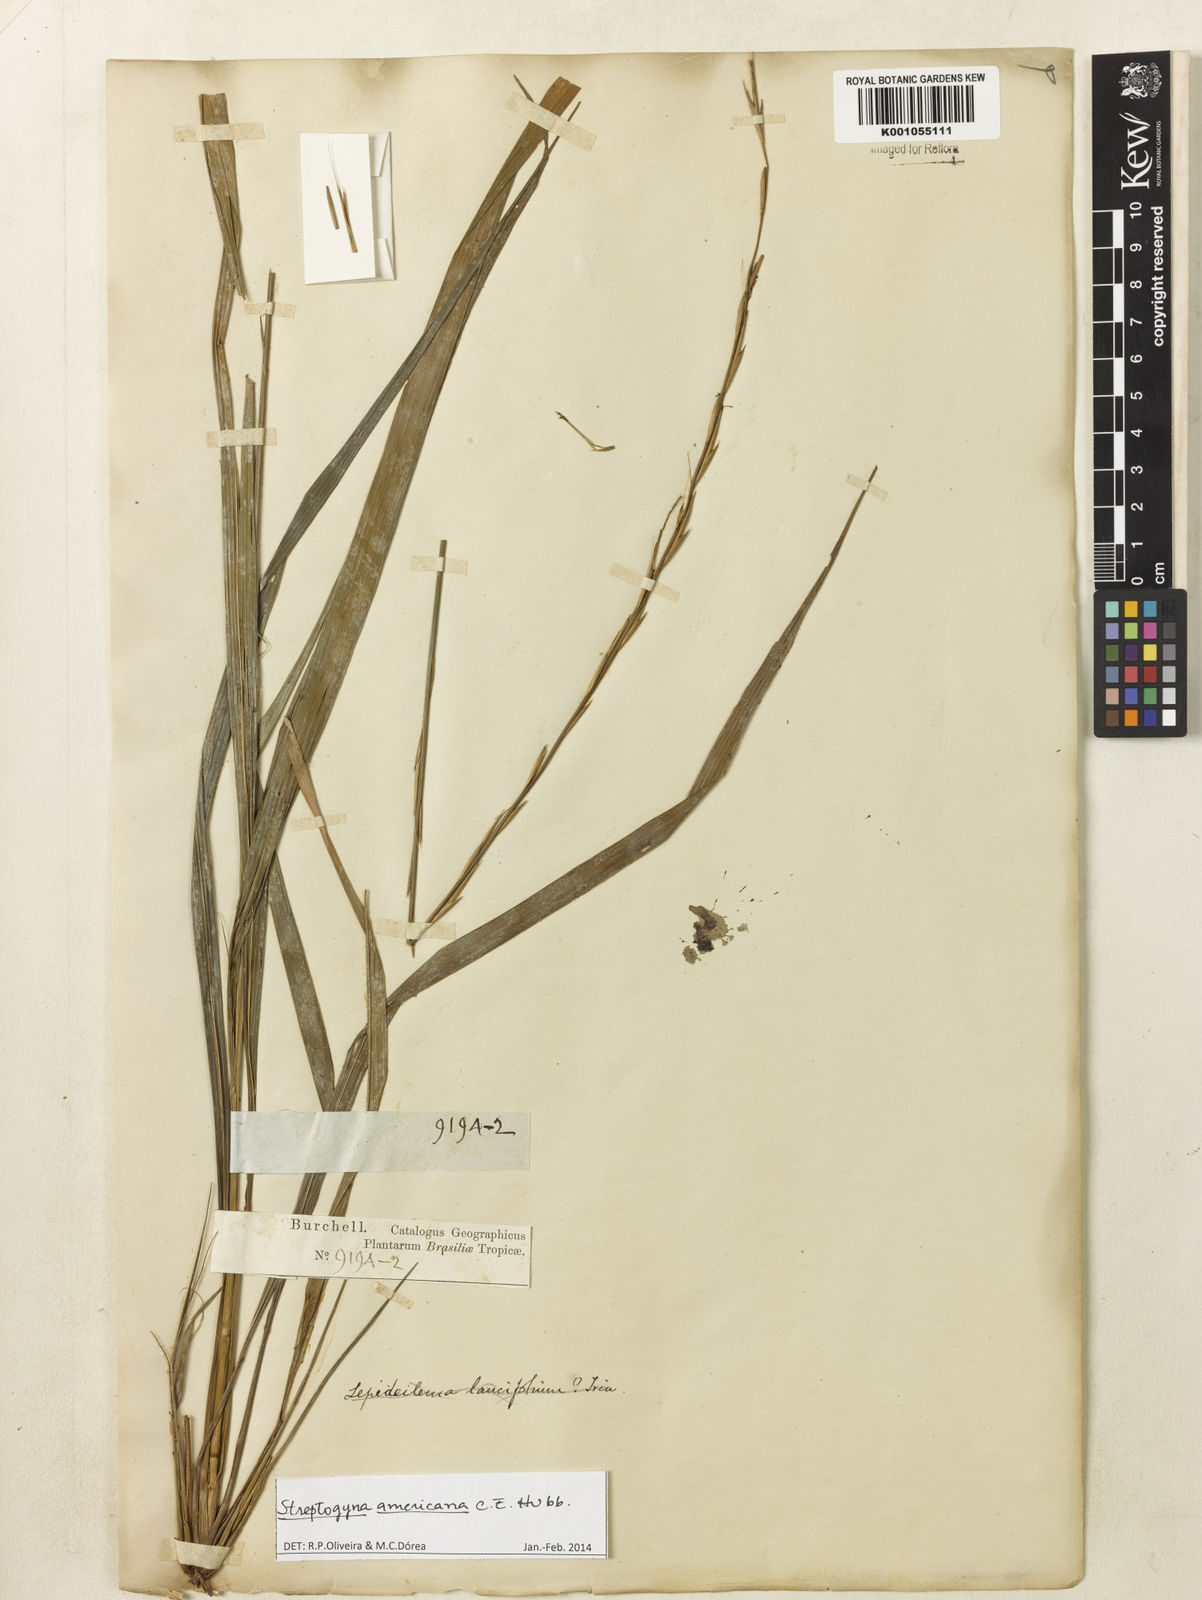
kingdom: Plantae
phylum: Tracheophyta
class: Liliopsida
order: Poales
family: Poaceae
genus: Streptogyna
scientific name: Streptogyna americana
